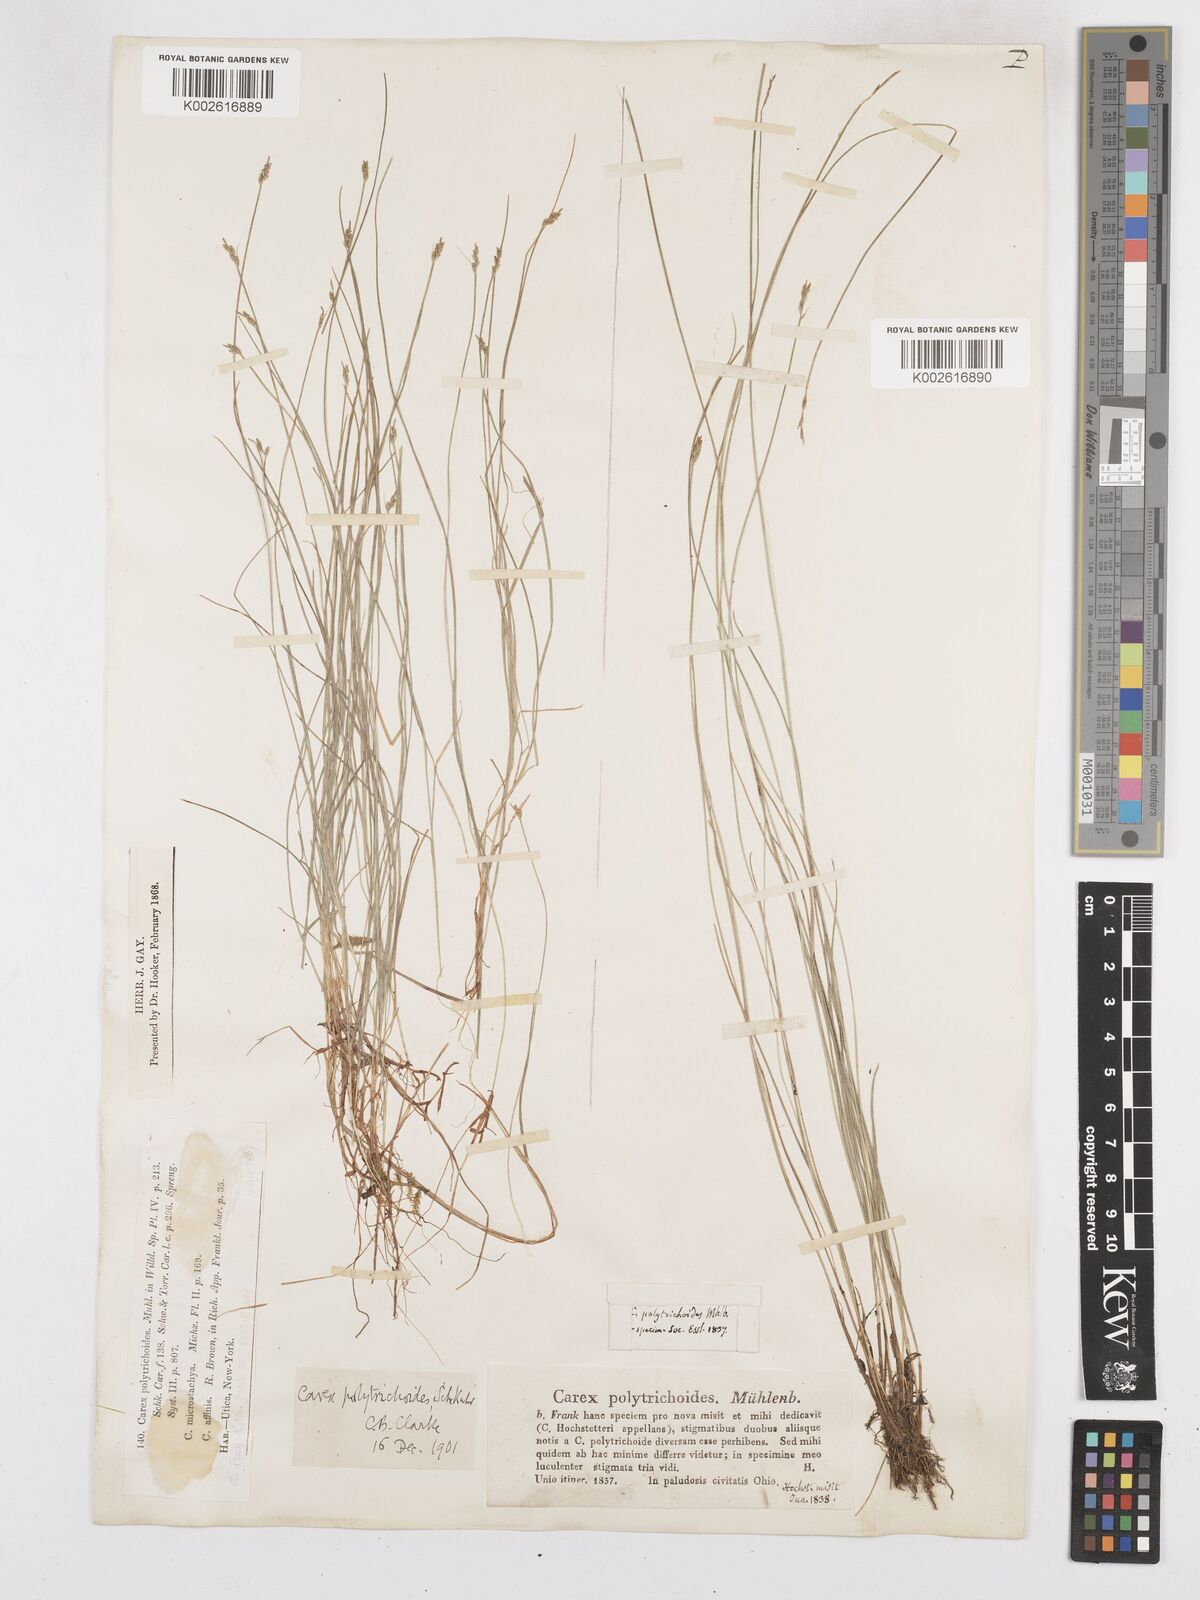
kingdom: Plantae
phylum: Tracheophyta
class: Liliopsida
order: Poales
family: Cyperaceae
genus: Carex
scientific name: Carex leptalea
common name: Bristly-stalked sedge
